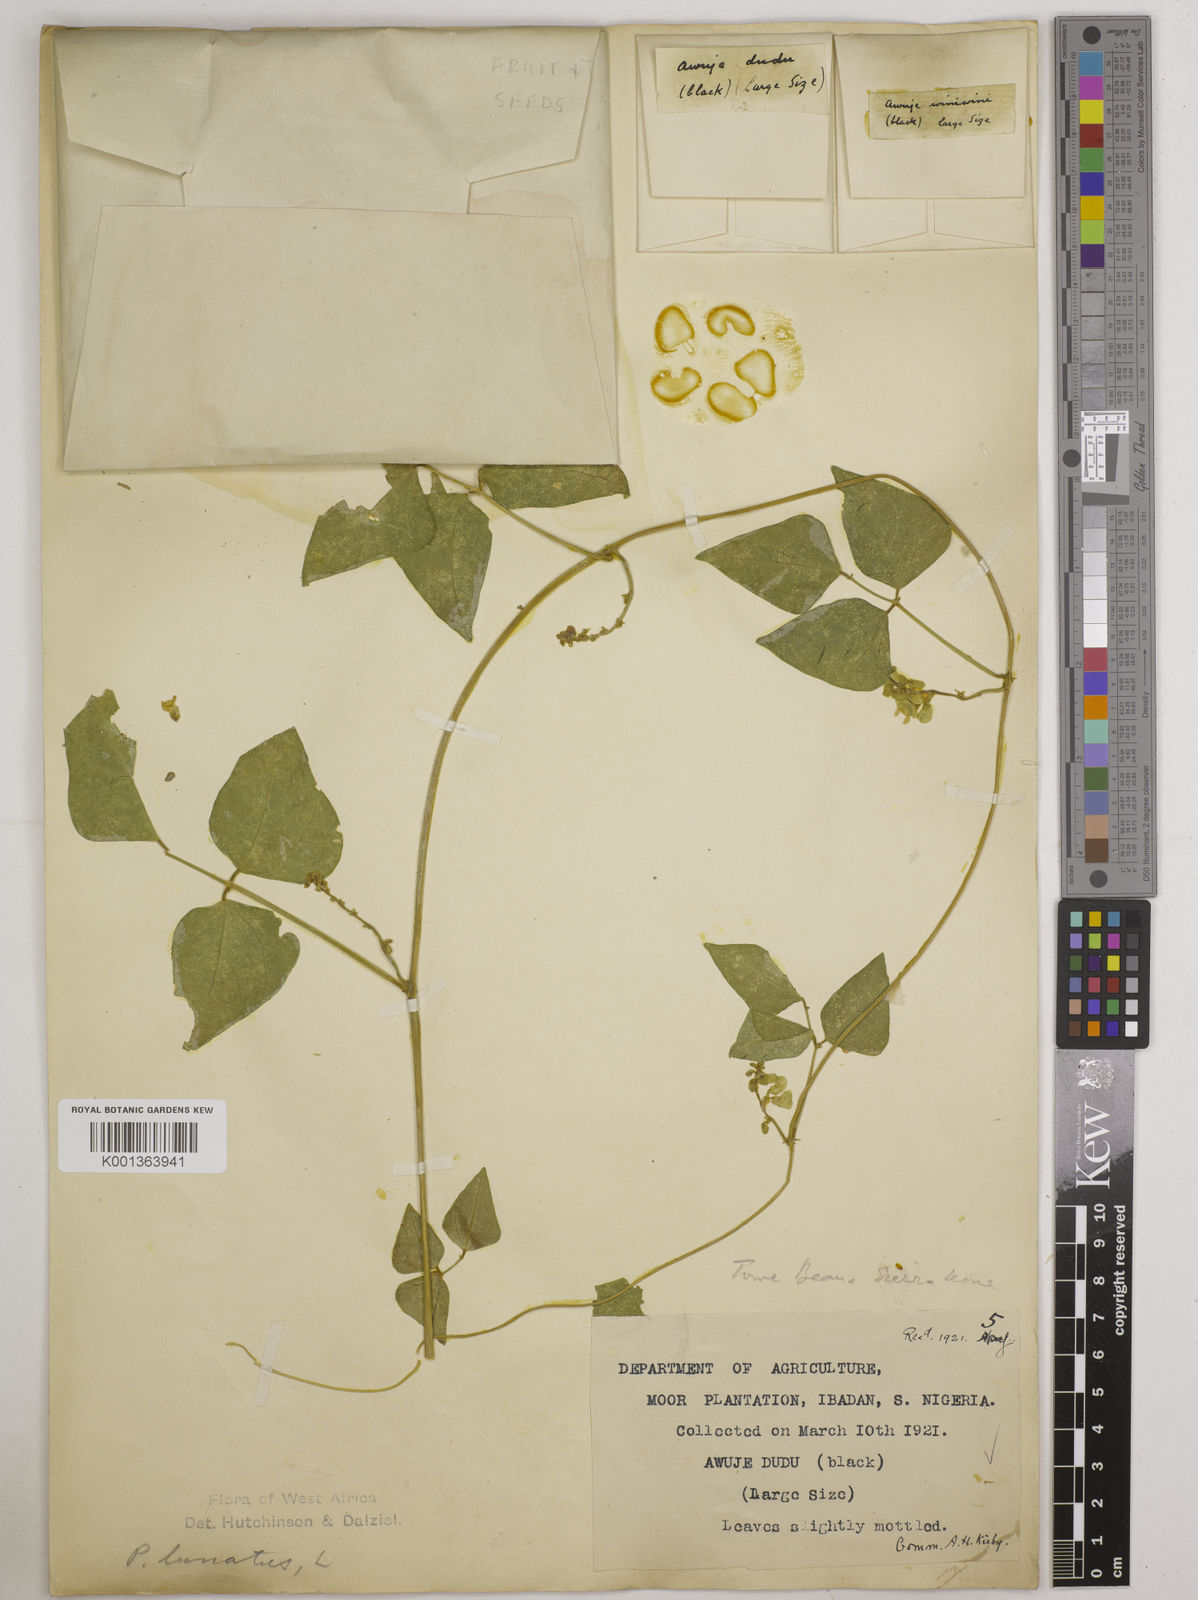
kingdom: Plantae
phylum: Tracheophyta
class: Magnoliopsida
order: Fabales
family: Fabaceae
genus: Phaseolus
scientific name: Phaseolus lunatus
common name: Sieva bean
